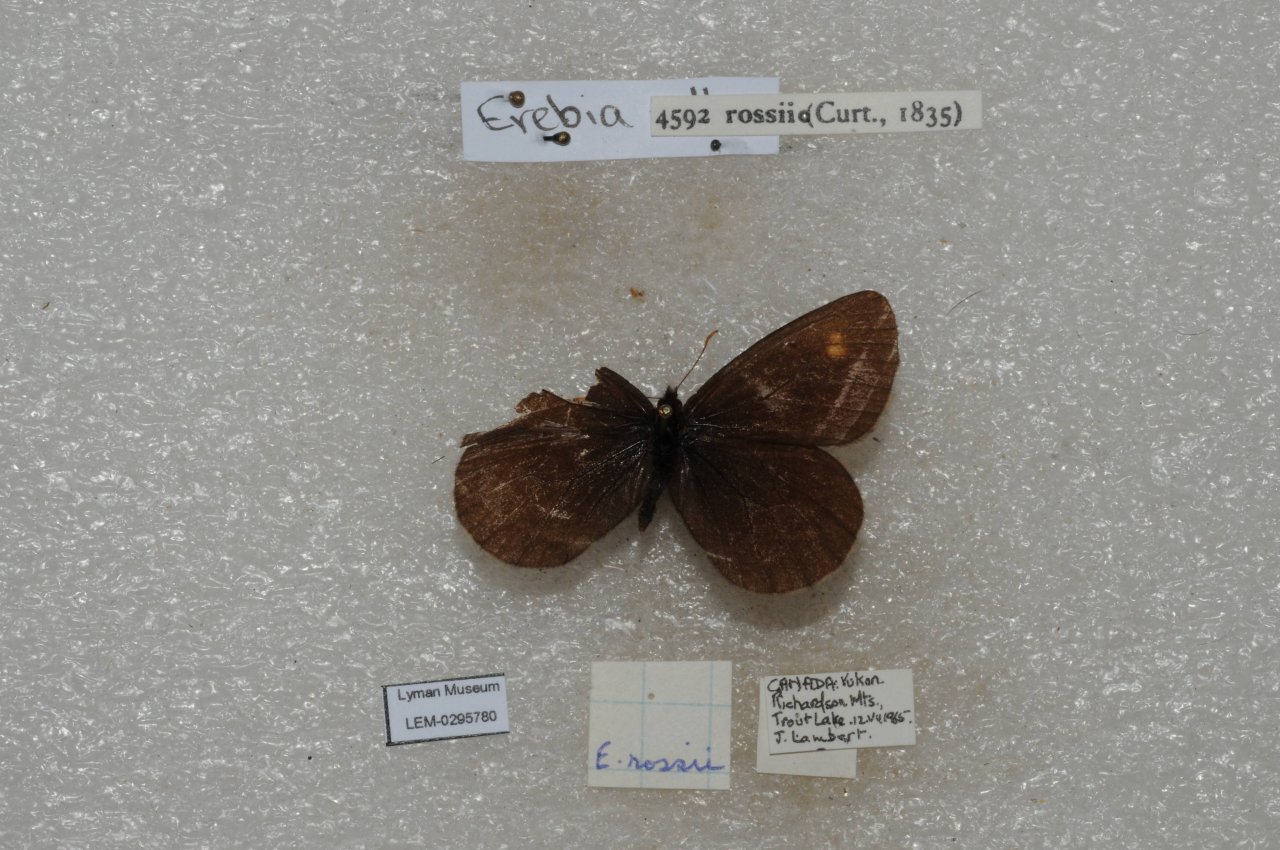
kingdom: Animalia
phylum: Arthropoda
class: Insecta
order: Lepidoptera
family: Nymphalidae
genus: Erebia
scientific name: Erebia rossii
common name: Ross's Alpine
